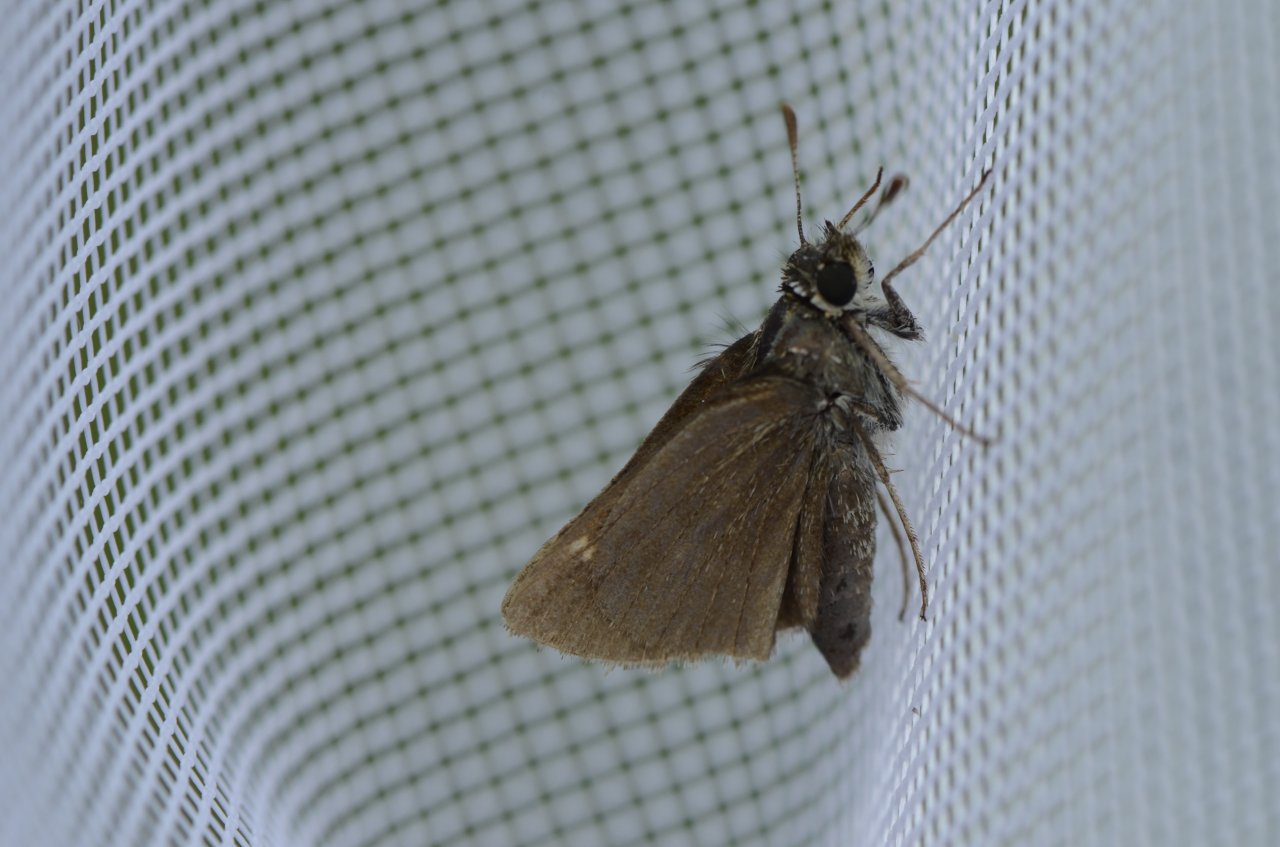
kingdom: Animalia
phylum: Arthropoda
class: Insecta
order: Lepidoptera
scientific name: Lepidoptera
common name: Butterflies
